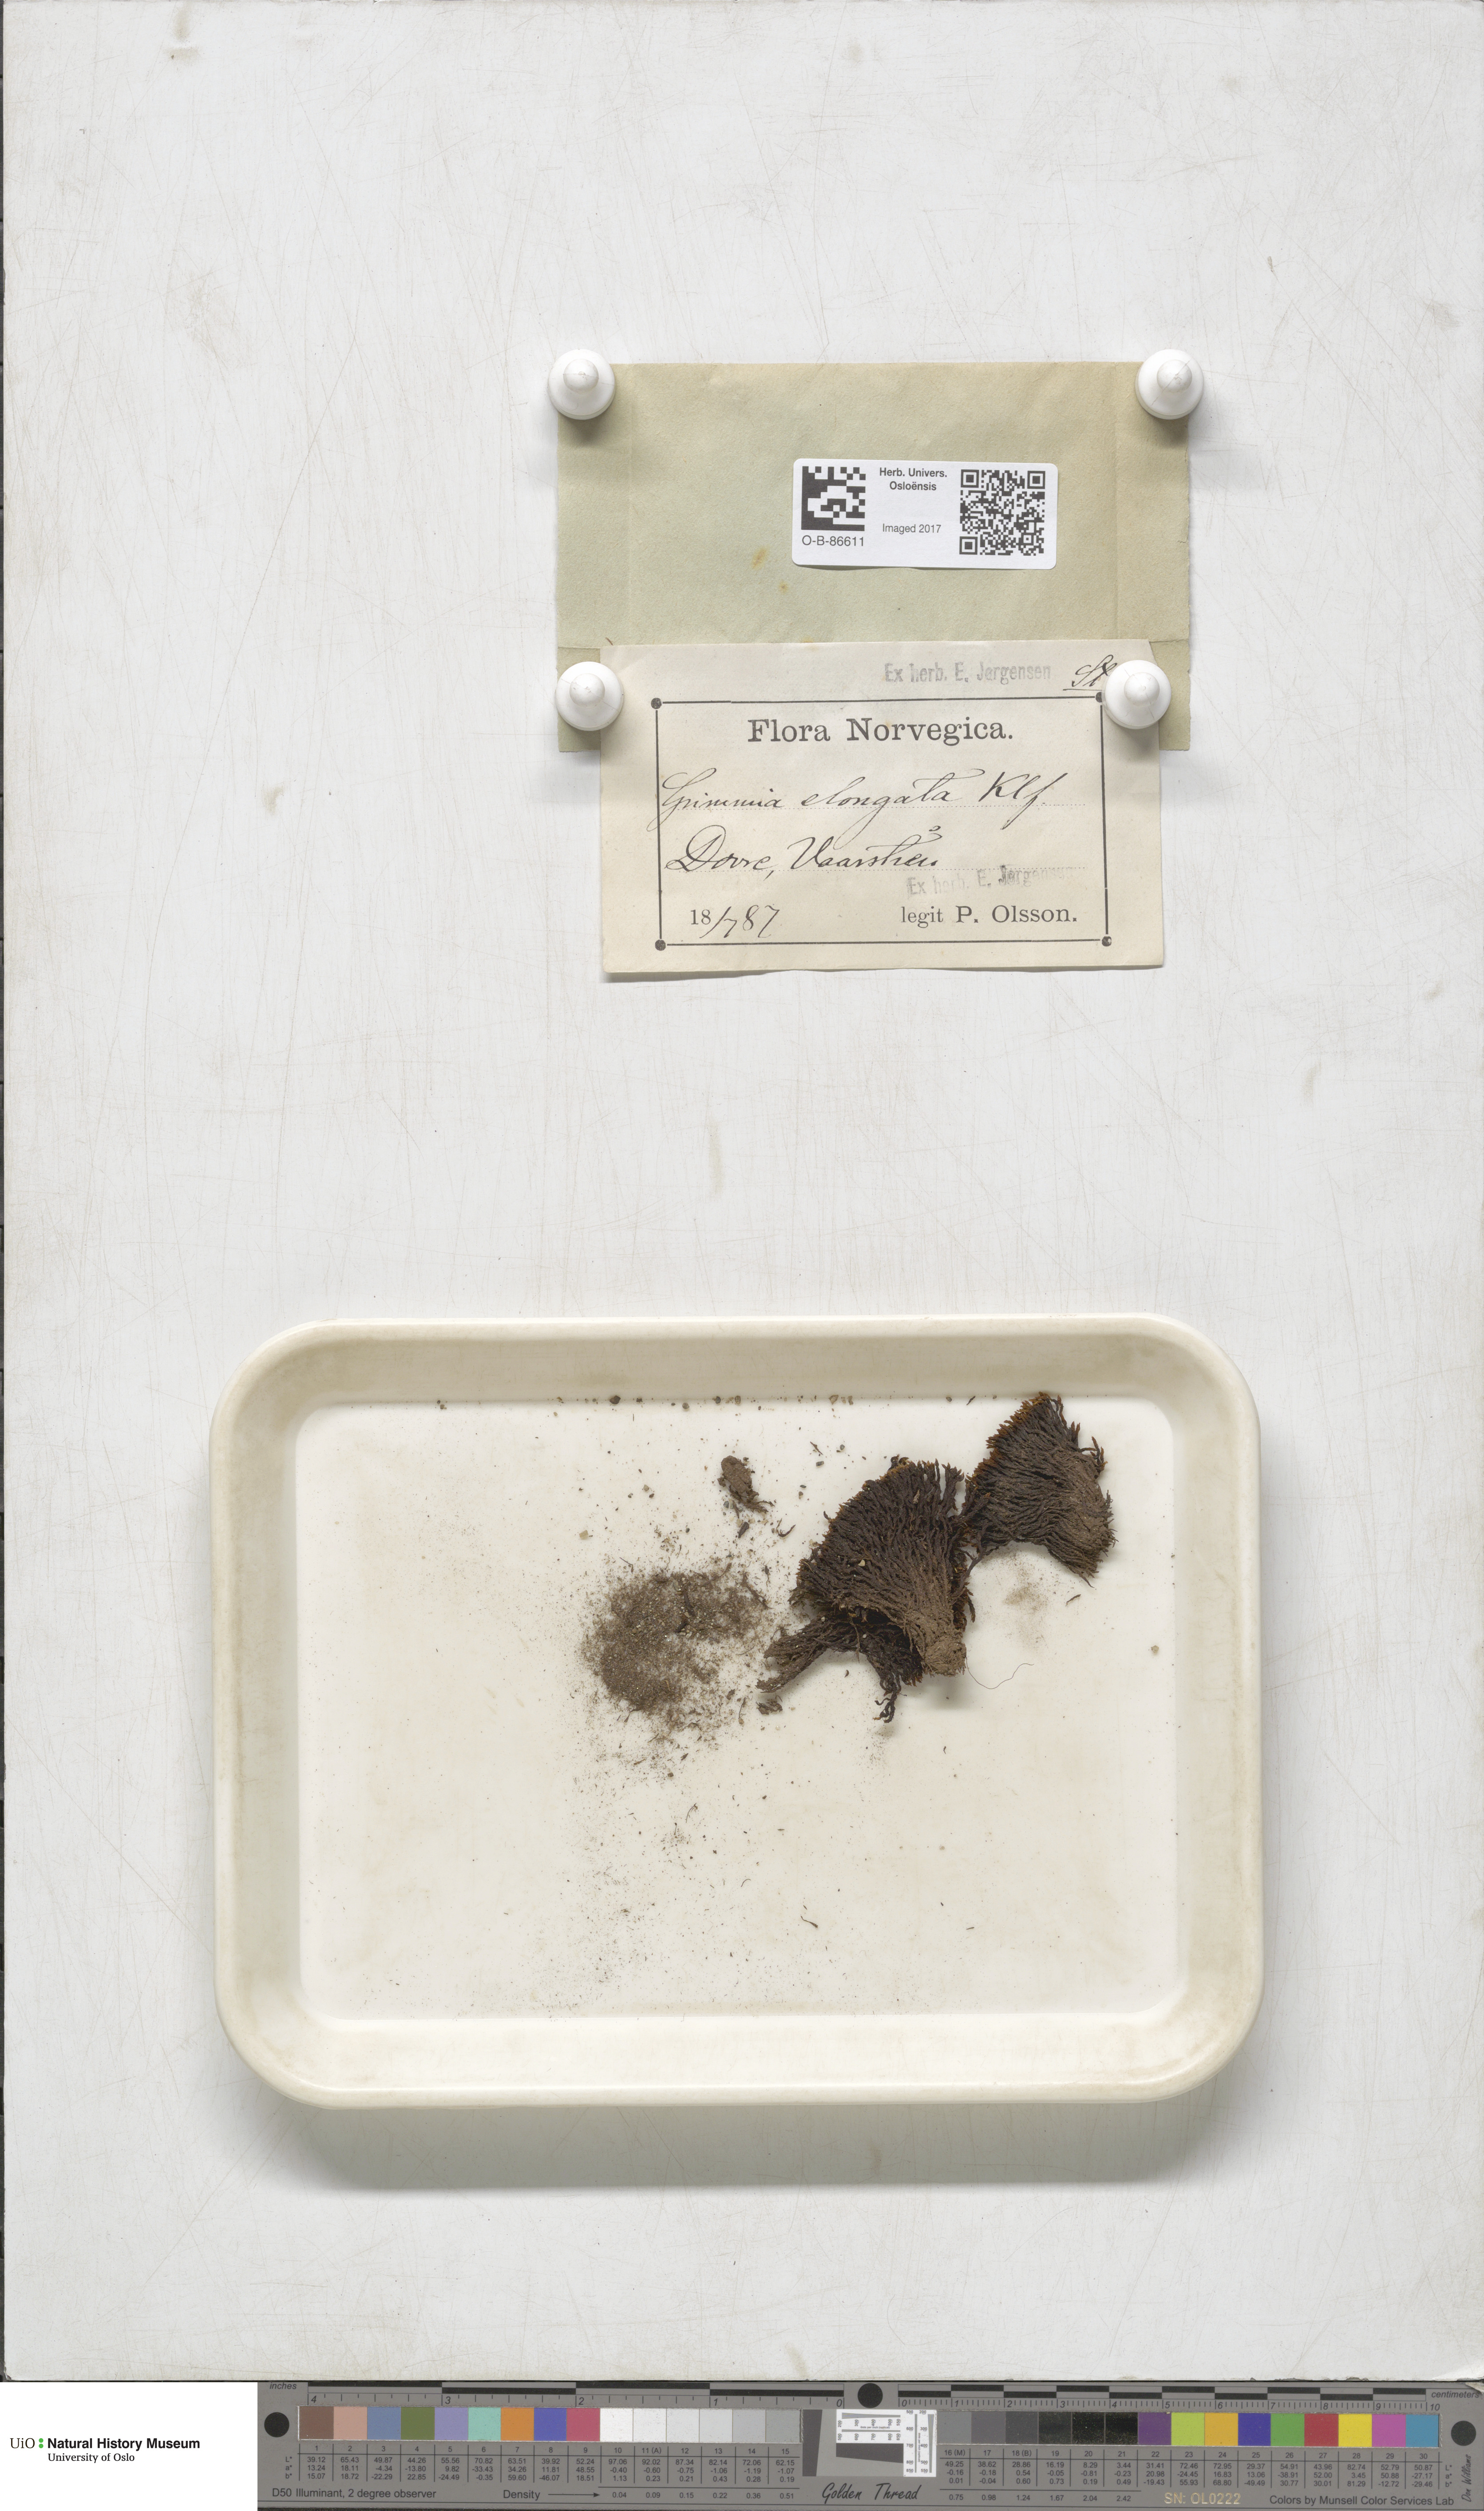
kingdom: Plantae
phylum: Bryophyta
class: Bryopsida
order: Grimmiales
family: Grimmiaceae
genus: Grimmia
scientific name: Grimmia elongata
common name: Brown grimmia
